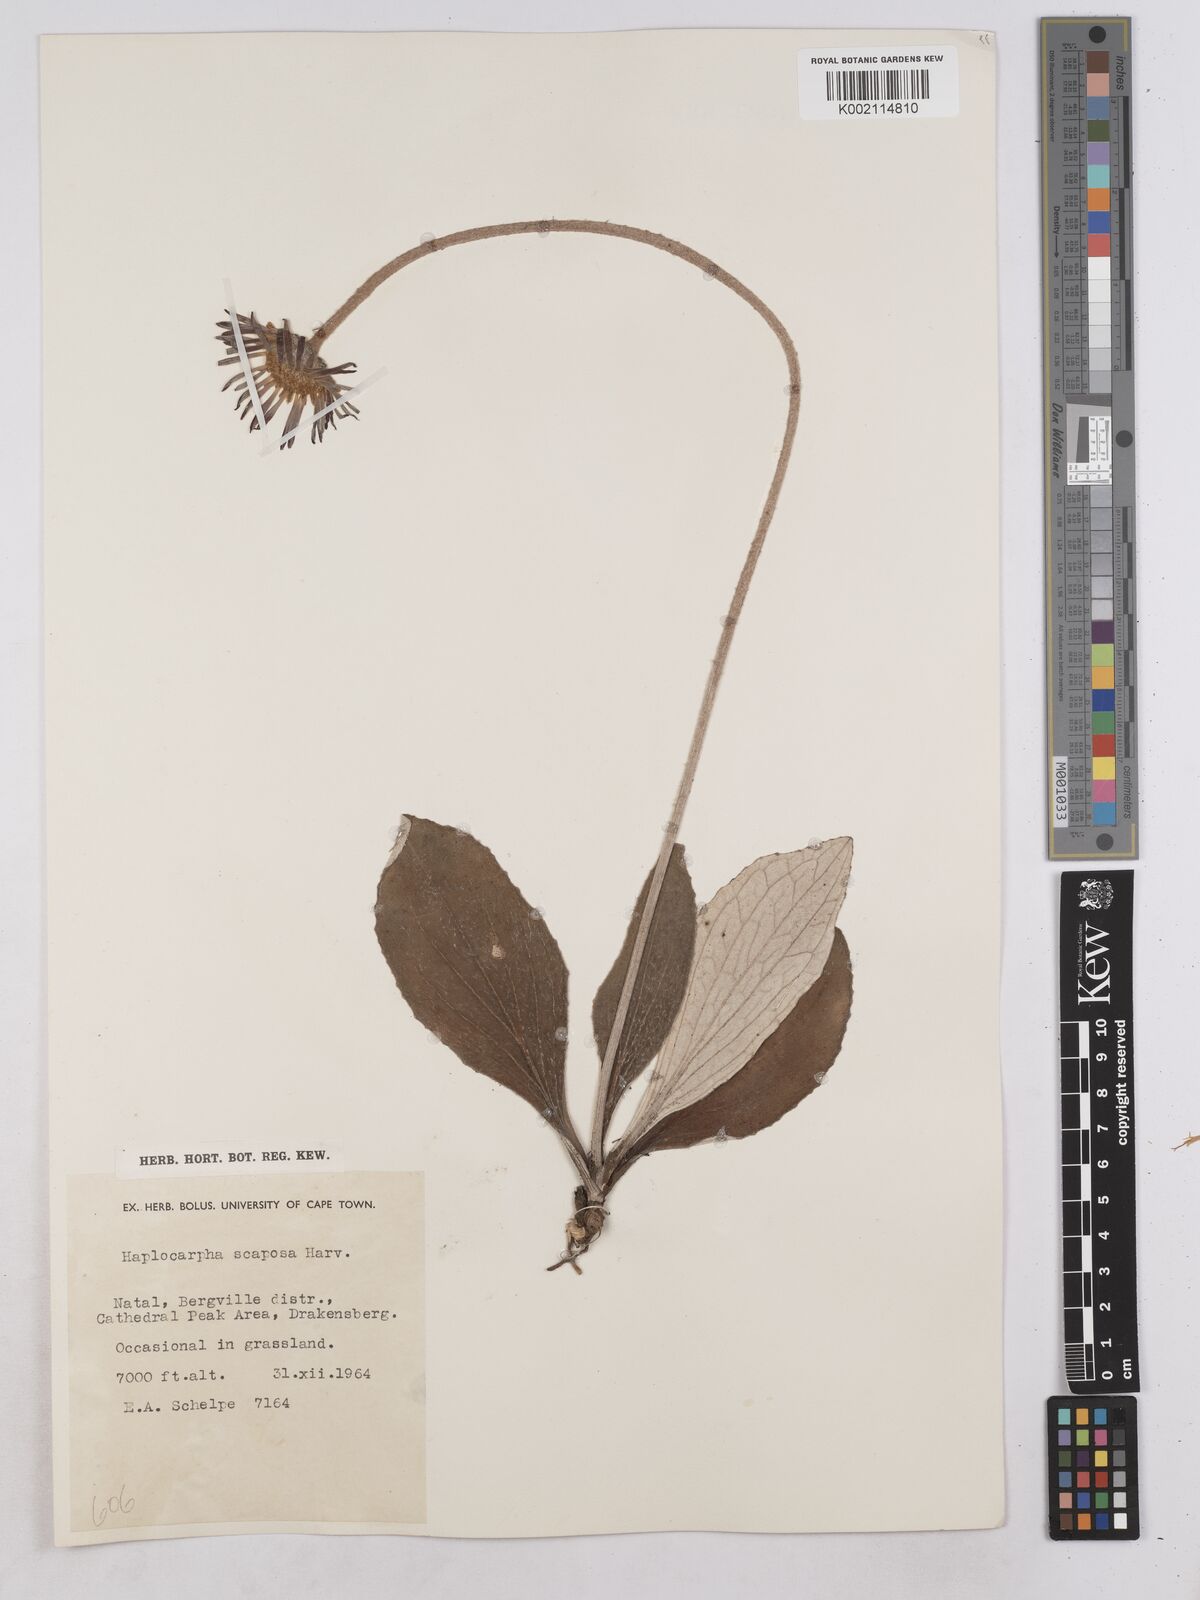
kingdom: Plantae
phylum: Tracheophyta
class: Magnoliopsida
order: Asterales
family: Asteraceae
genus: Haplocarpha
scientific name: Haplocarpha scaposa
